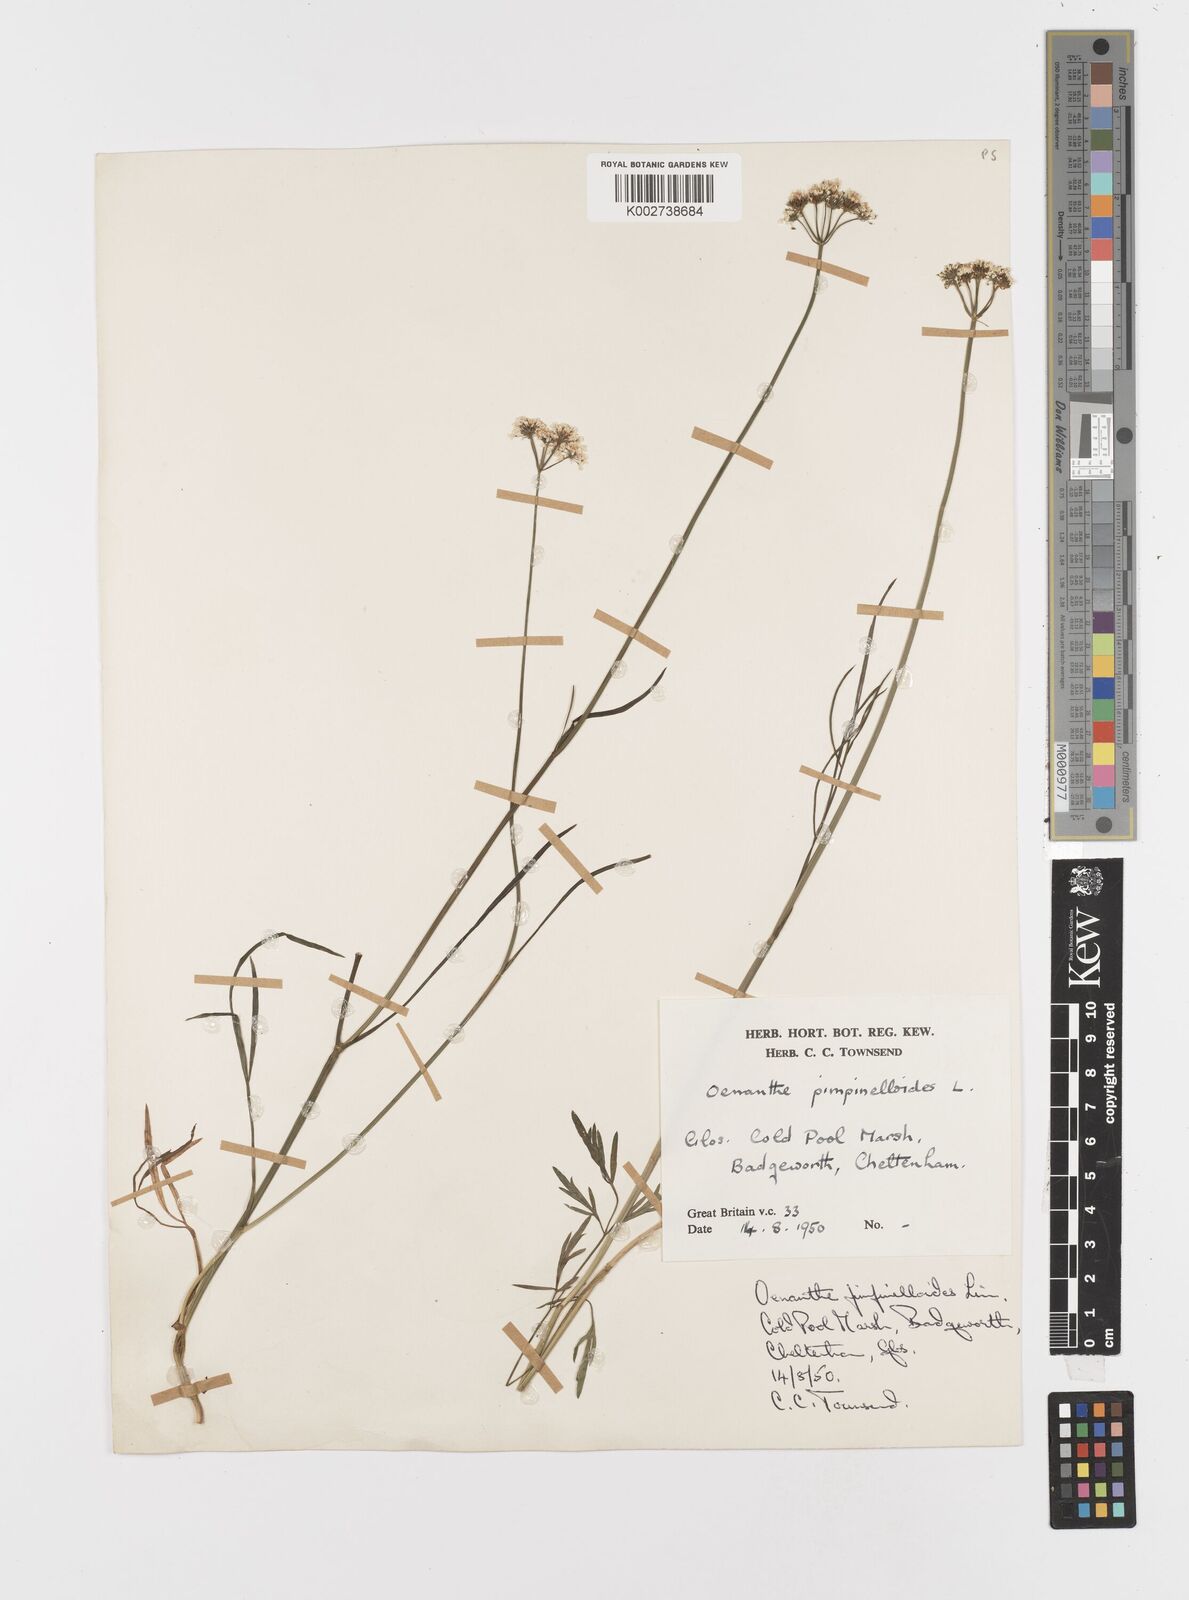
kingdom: Plantae
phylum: Tracheophyta
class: Magnoliopsida
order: Apiales
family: Apiaceae
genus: Oenanthe
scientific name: Oenanthe pimpinelloides
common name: Corky-fruited water-dropwort
